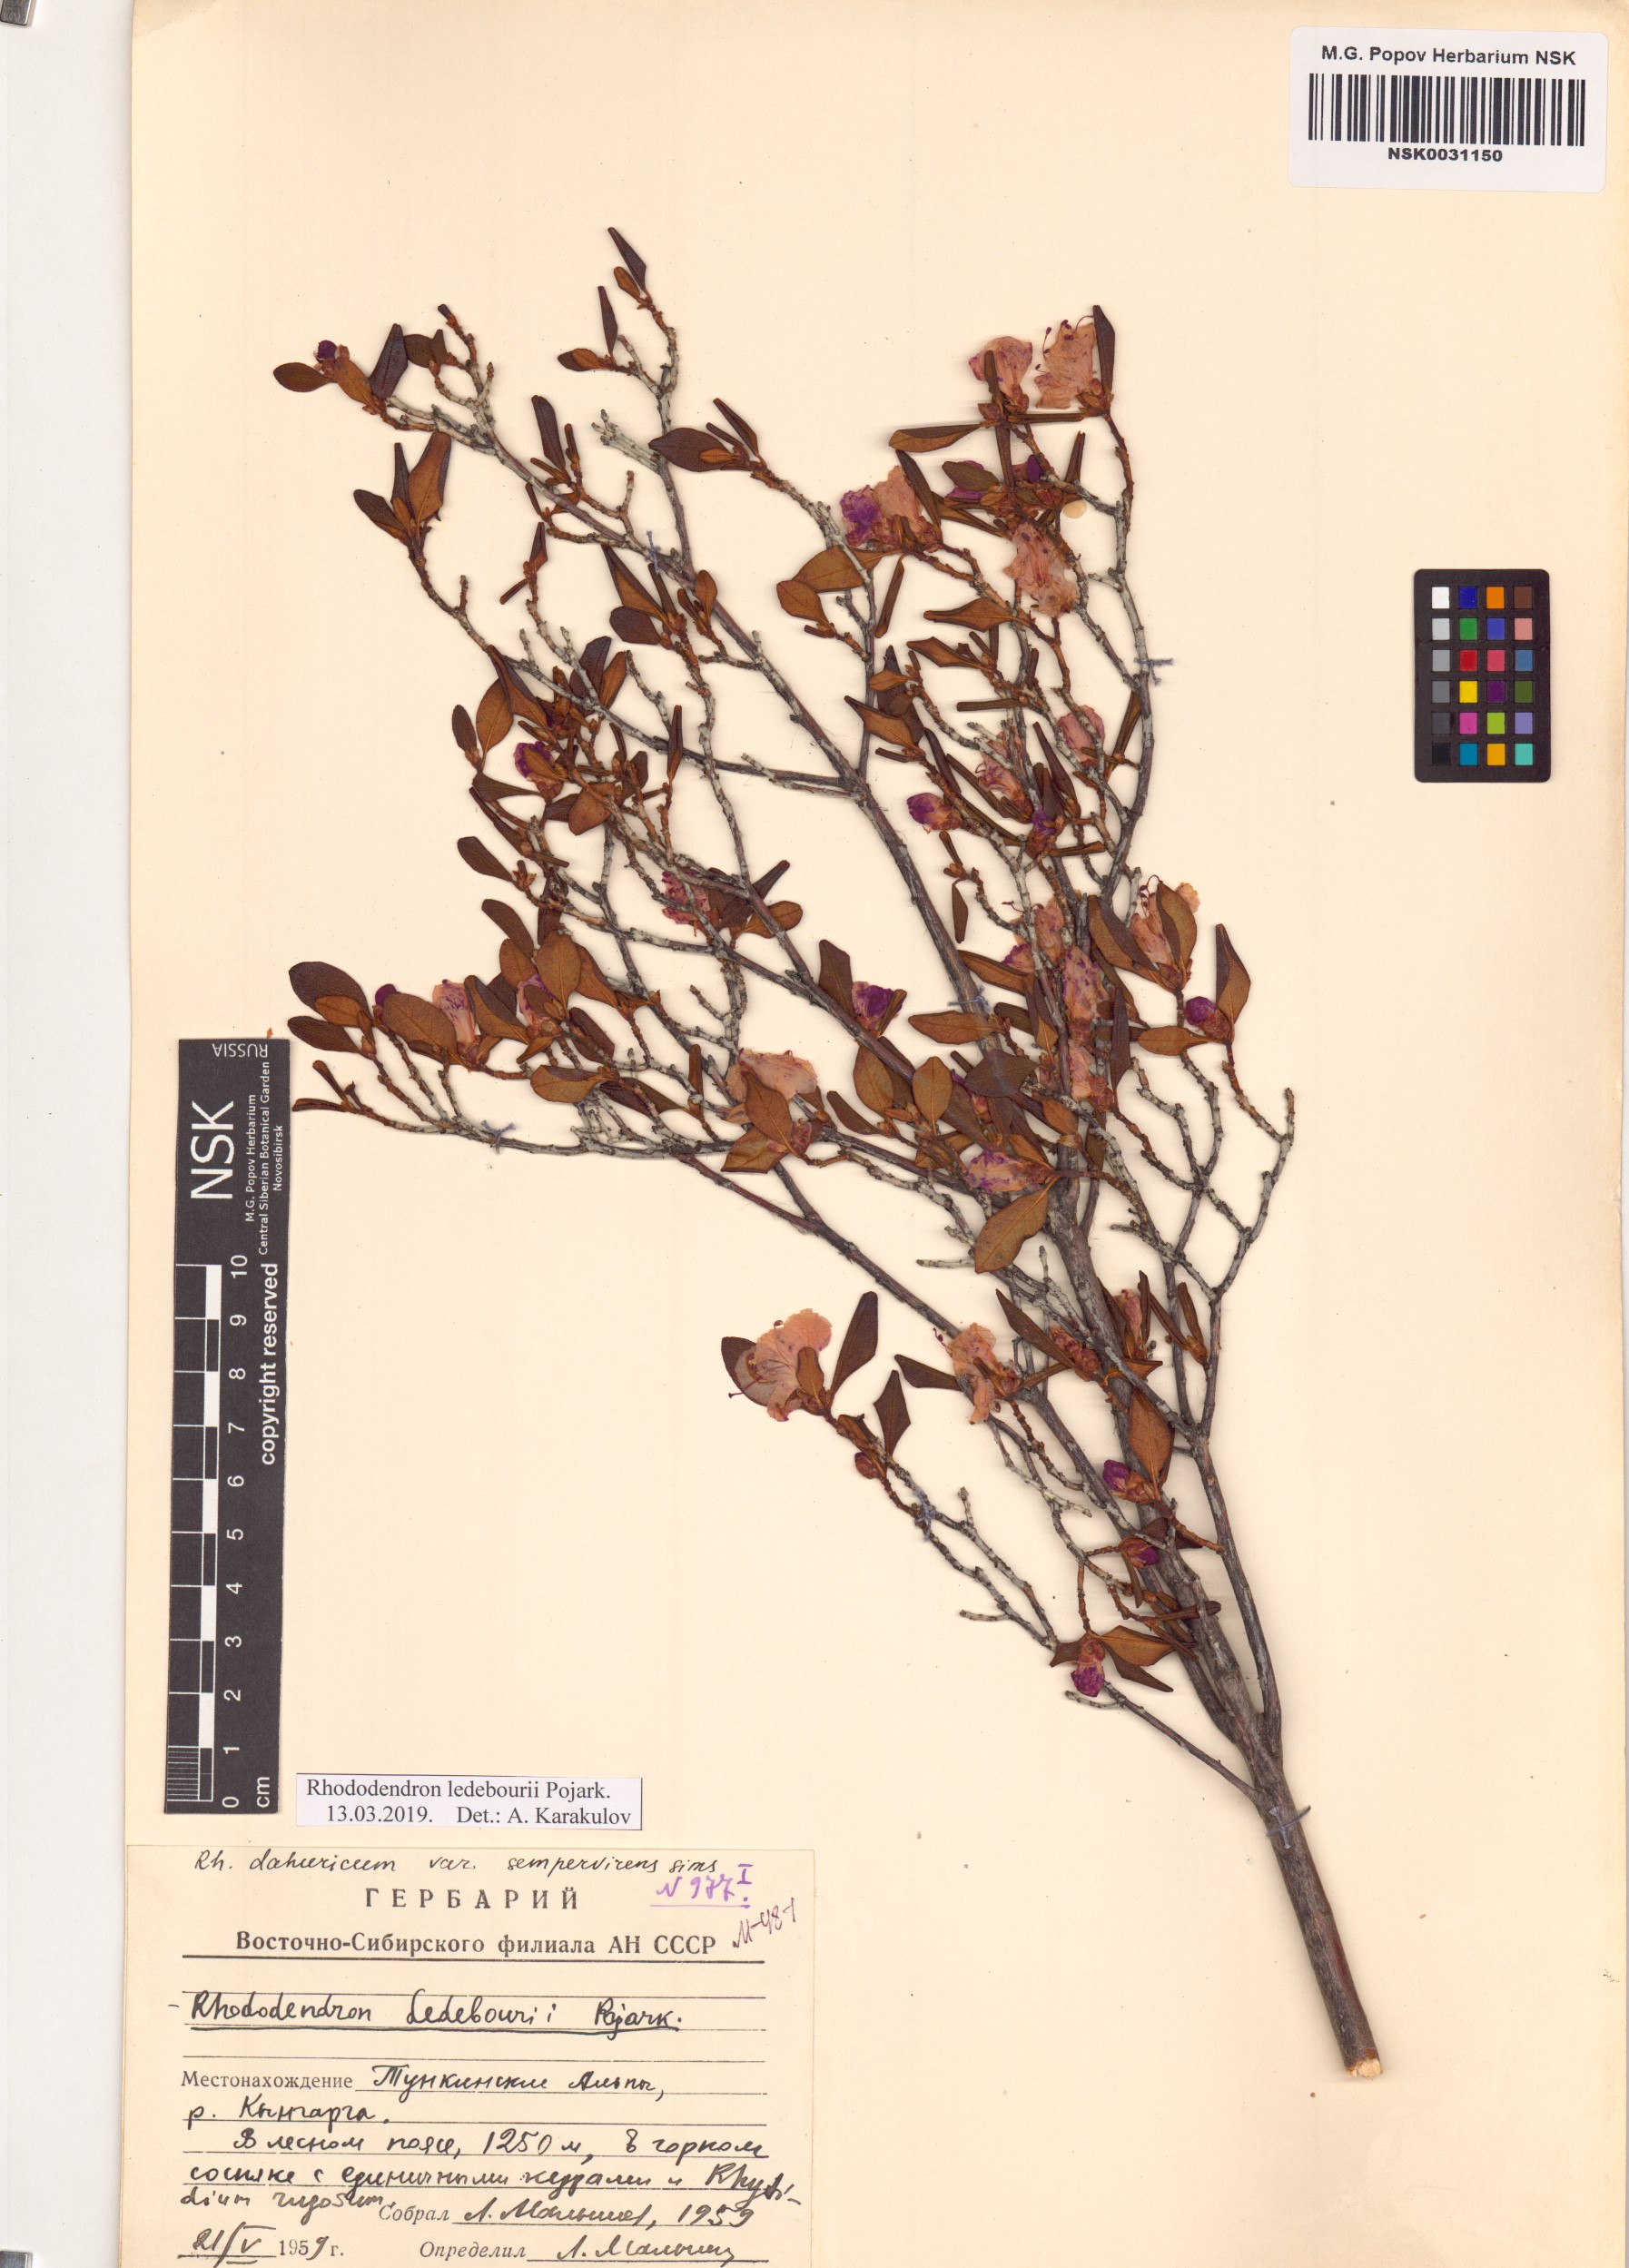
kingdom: Plantae
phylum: Tracheophyta
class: Magnoliopsida
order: Ericales
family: Ericaceae
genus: Rhododendron
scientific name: Rhododendron dauricum
